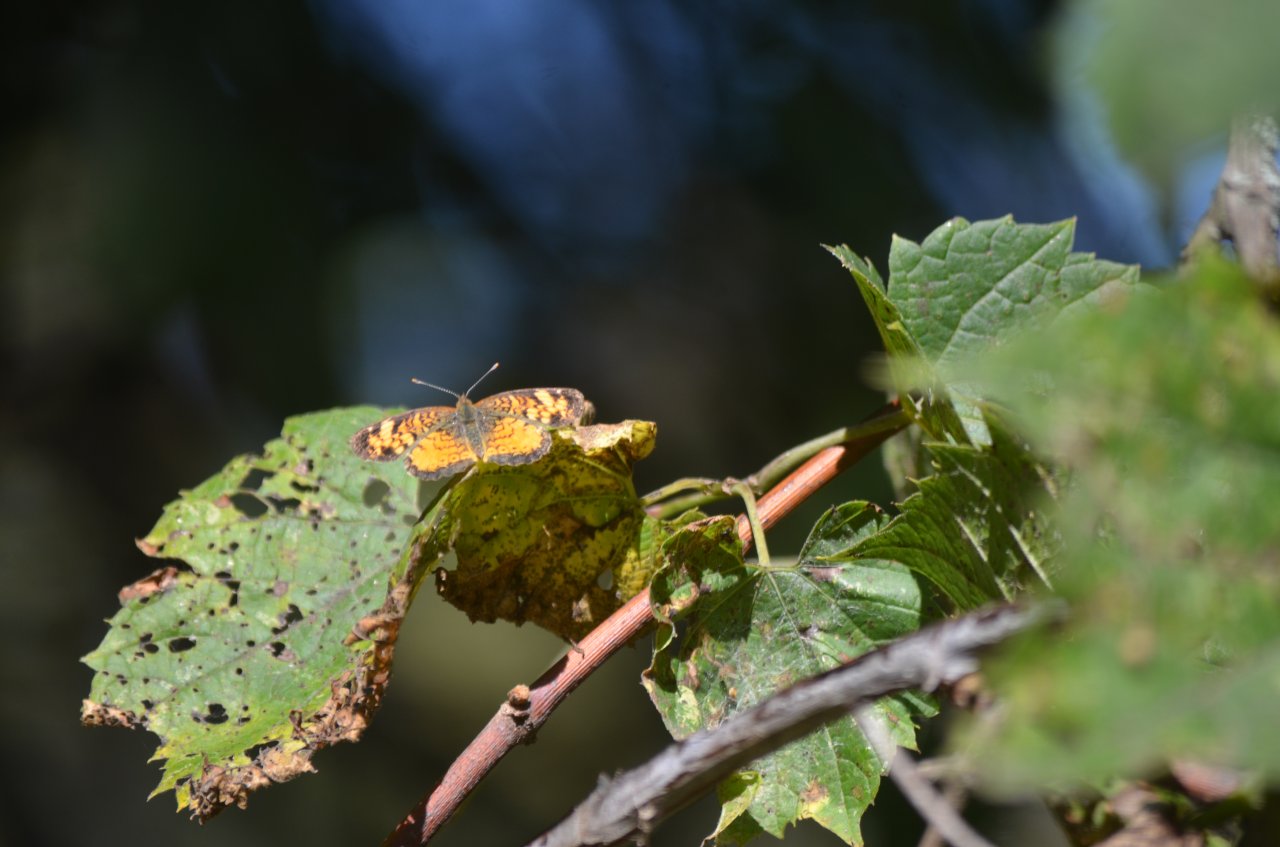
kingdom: Animalia
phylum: Arthropoda
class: Insecta
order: Lepidoptera
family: Nymphalidae
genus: Phyciodes
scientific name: Phyciodes tharos
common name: Northern Crescent
